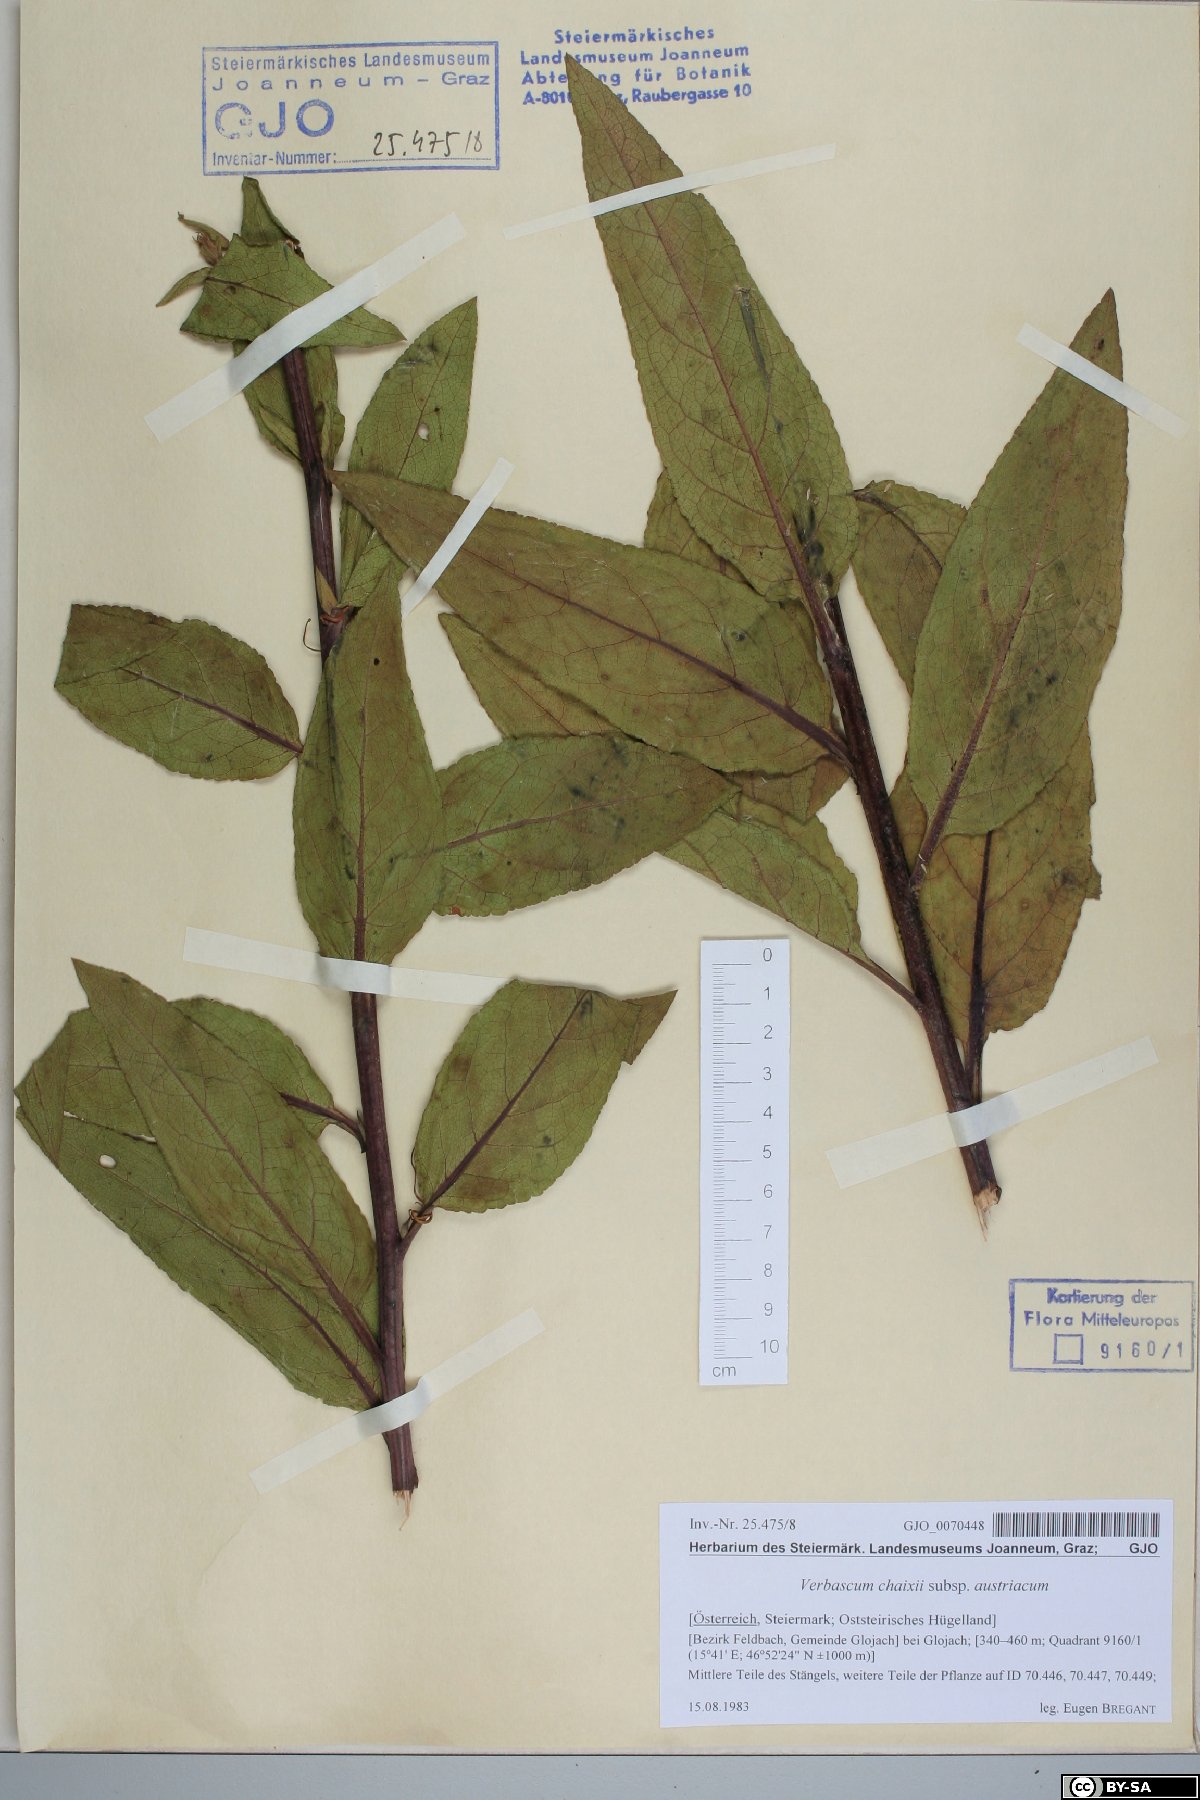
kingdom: Plantae
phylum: Tracheophyta
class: Magnoliopsida
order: Lamiales
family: Scrophulariaceae
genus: Verbascum
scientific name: Verbascum chaixii
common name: Nettle-leaved mullein
